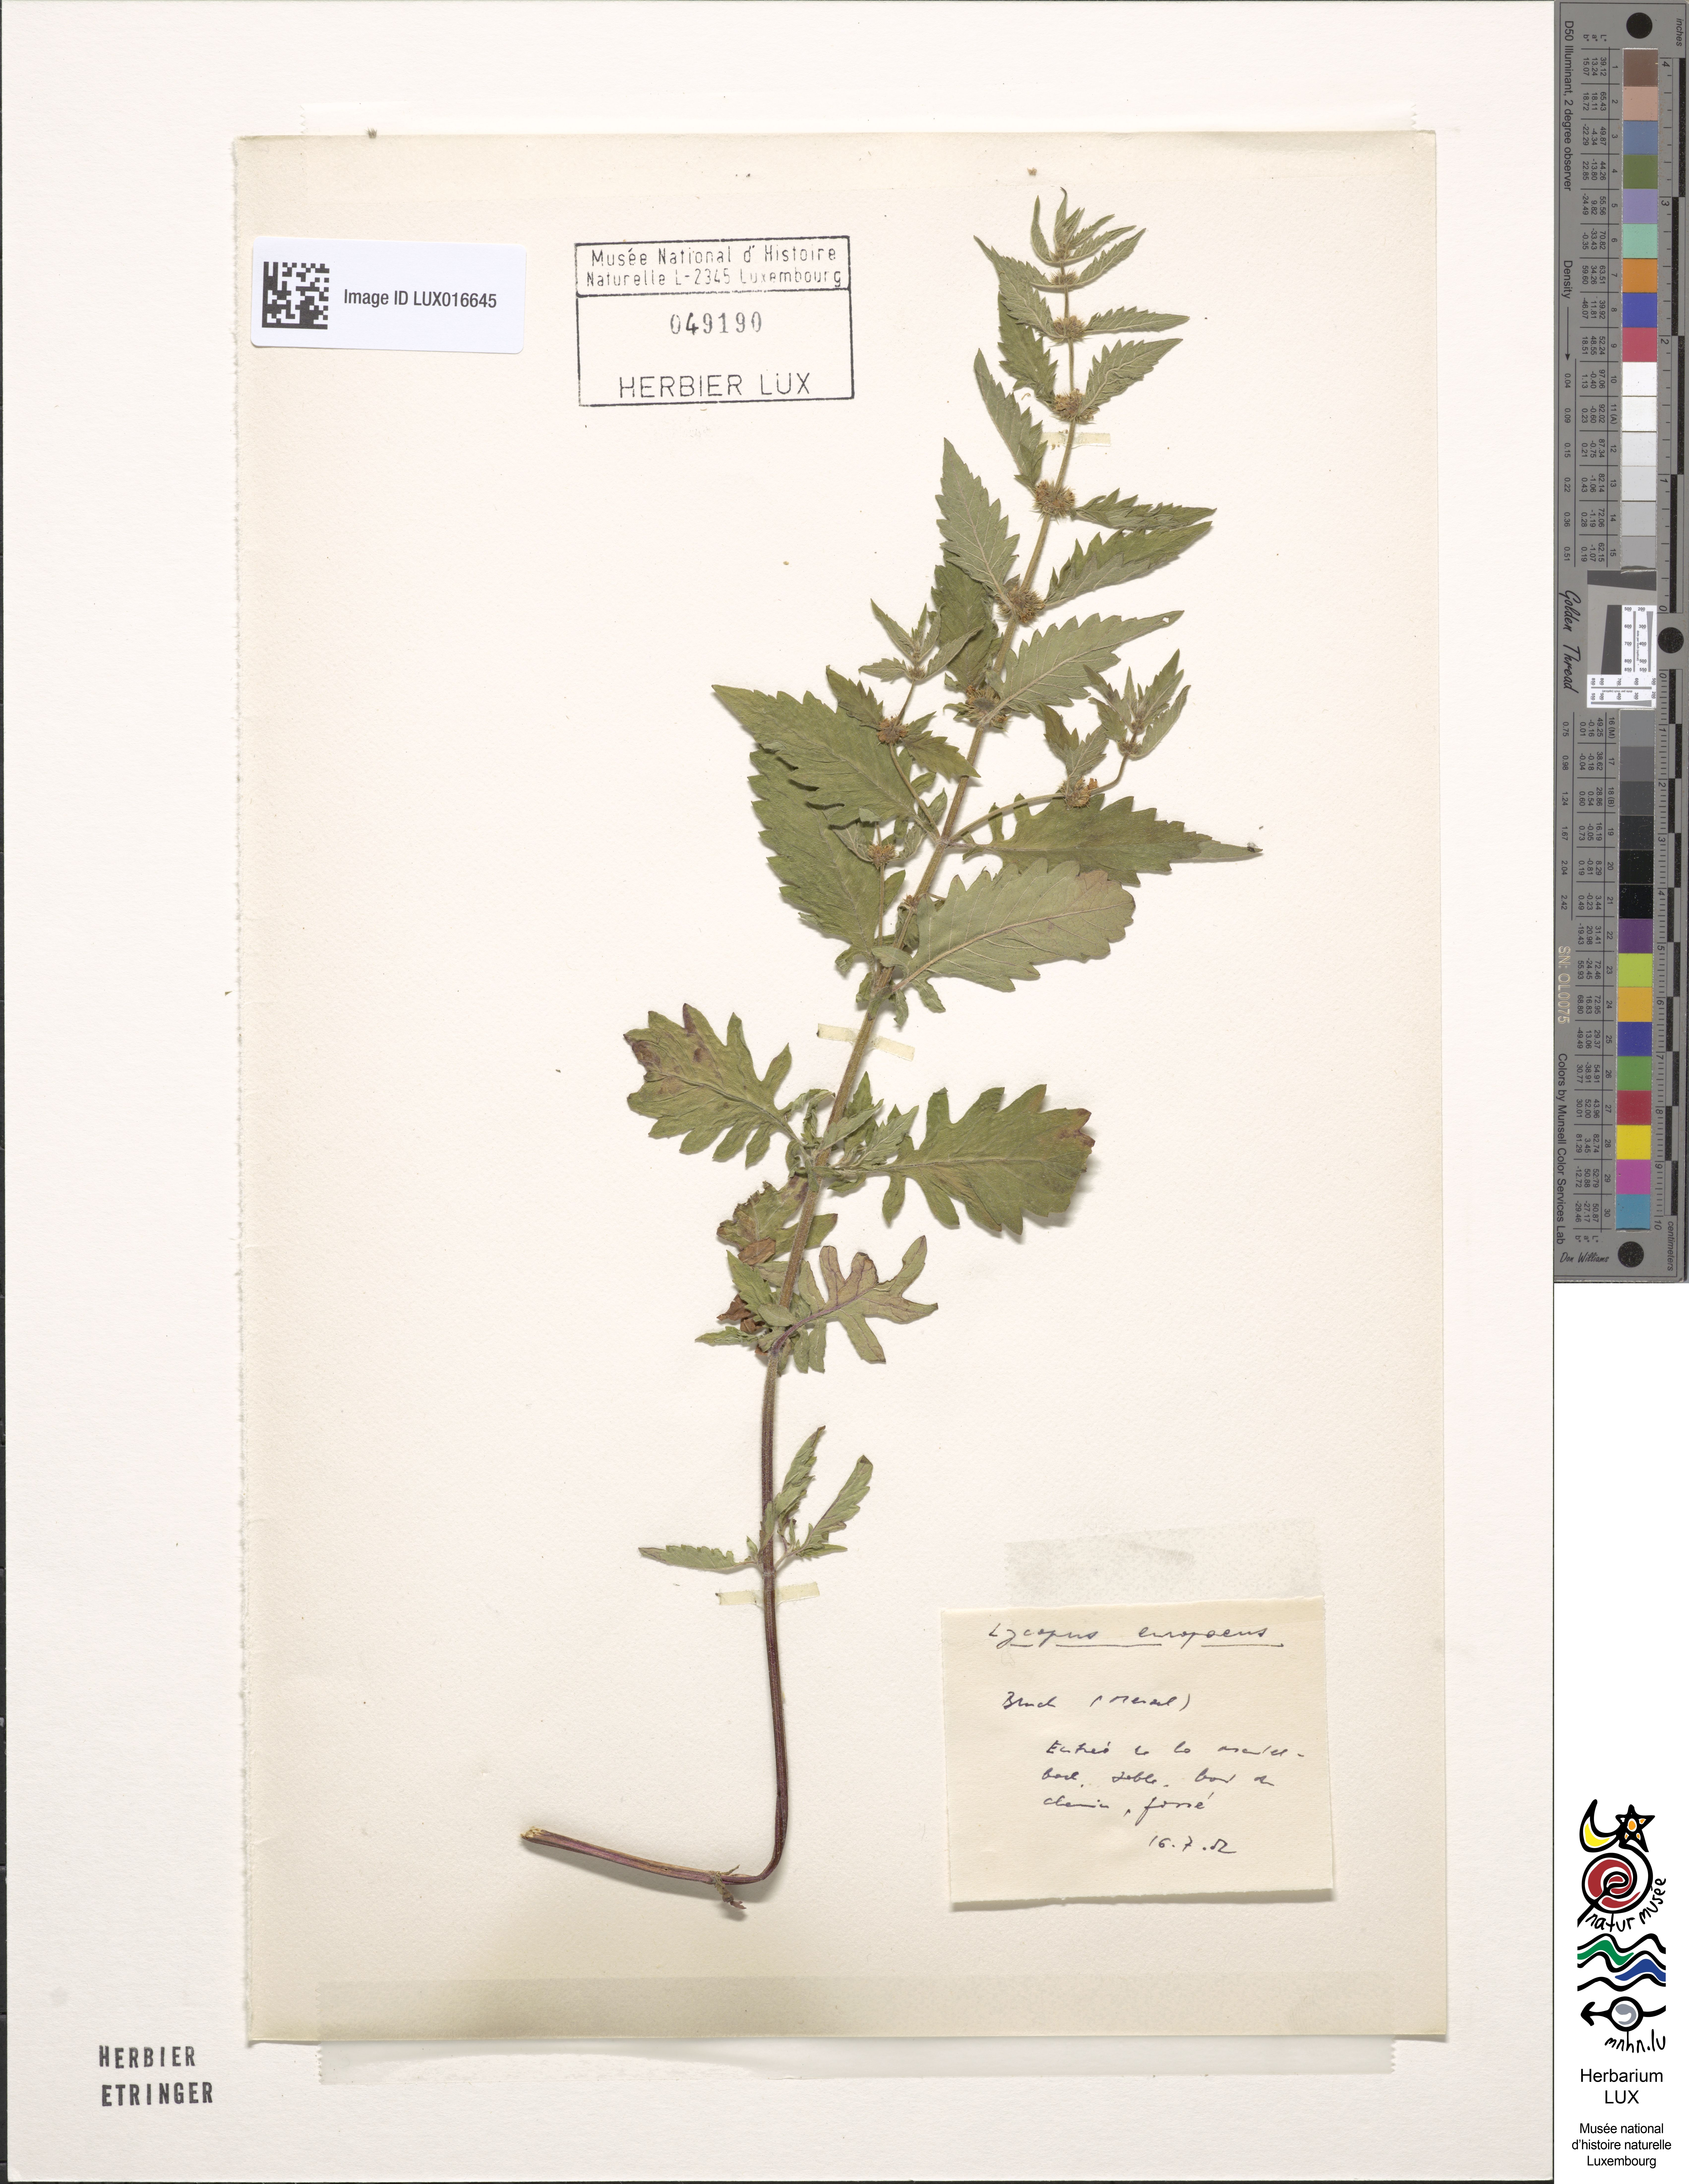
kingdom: Plantae
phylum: Tracheophyta
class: Magnoliopsida
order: Lamiales
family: Lamiaceae
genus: Lycopus
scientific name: Lycopus europaeus
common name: European bugleweed
